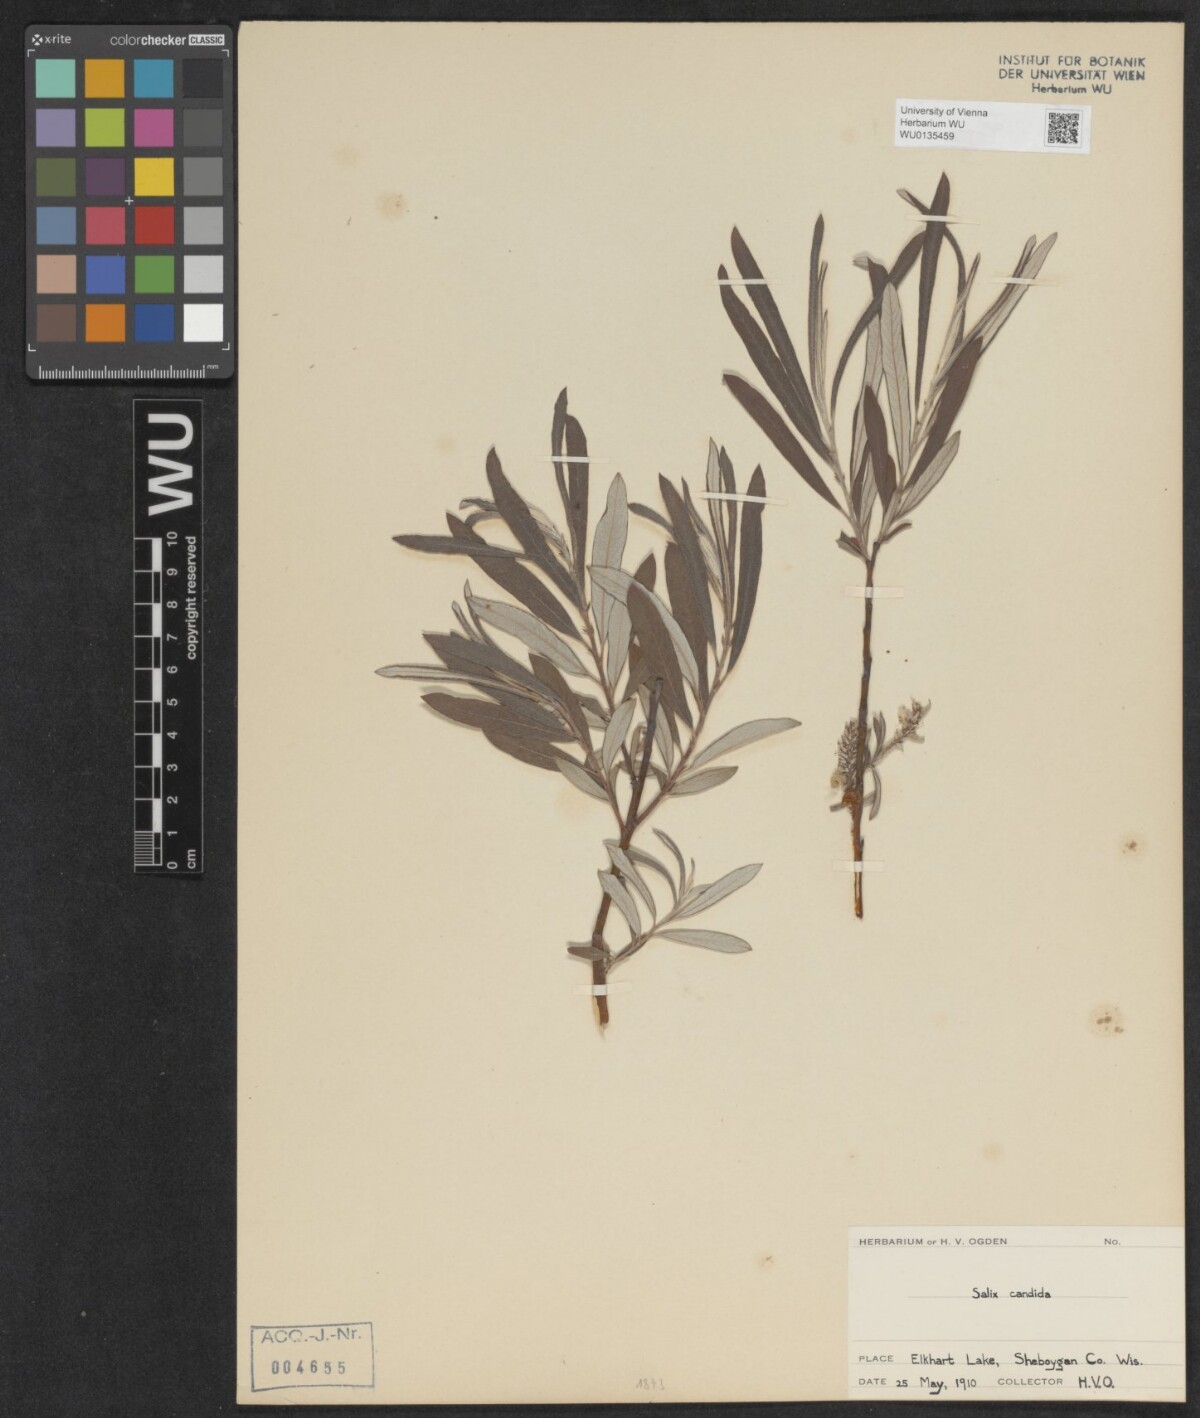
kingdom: Plantae
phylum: Tracheophyta
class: Magnoliopsida
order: Malpighiales
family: Salicaceae
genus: Salix
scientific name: Salix candida
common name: Hoary willow
